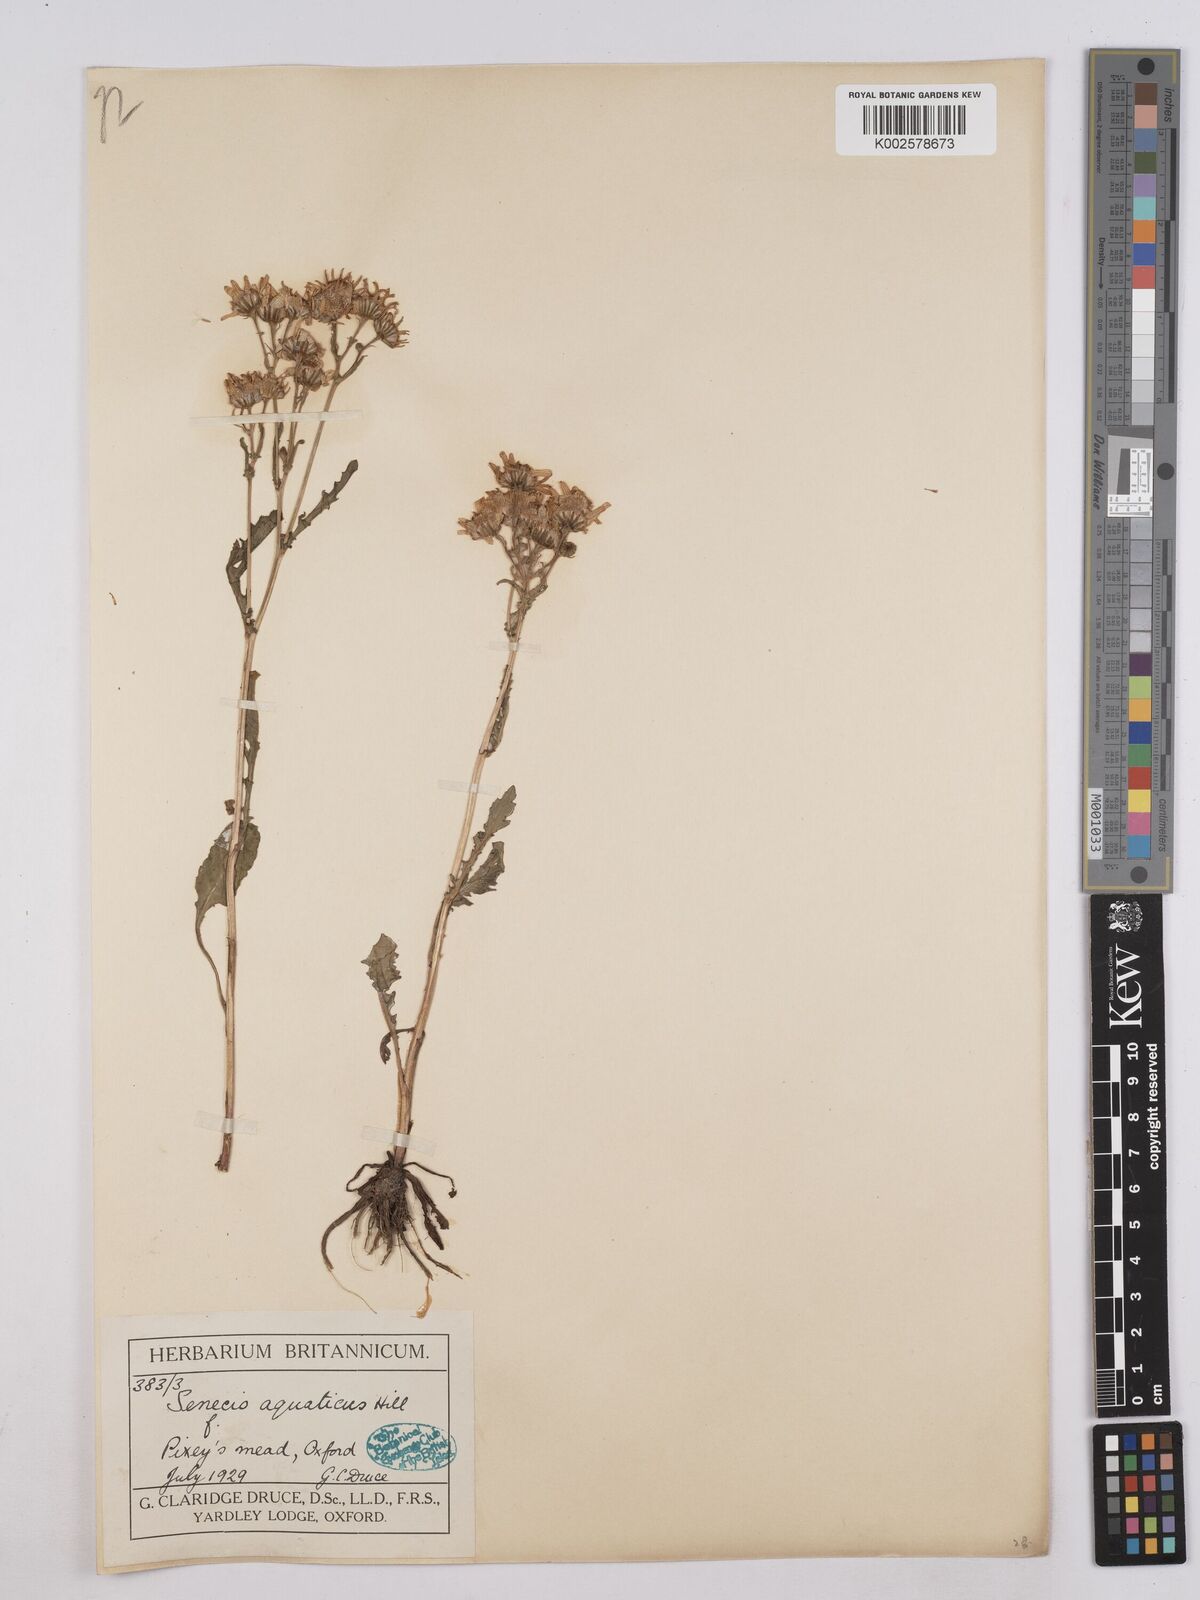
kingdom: Plantae
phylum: Tracheophyta
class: Magnoliopsida
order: Asterales
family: Asteraceae
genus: Jacobaea
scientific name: Jacobaea aquatica
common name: Water ragwort
